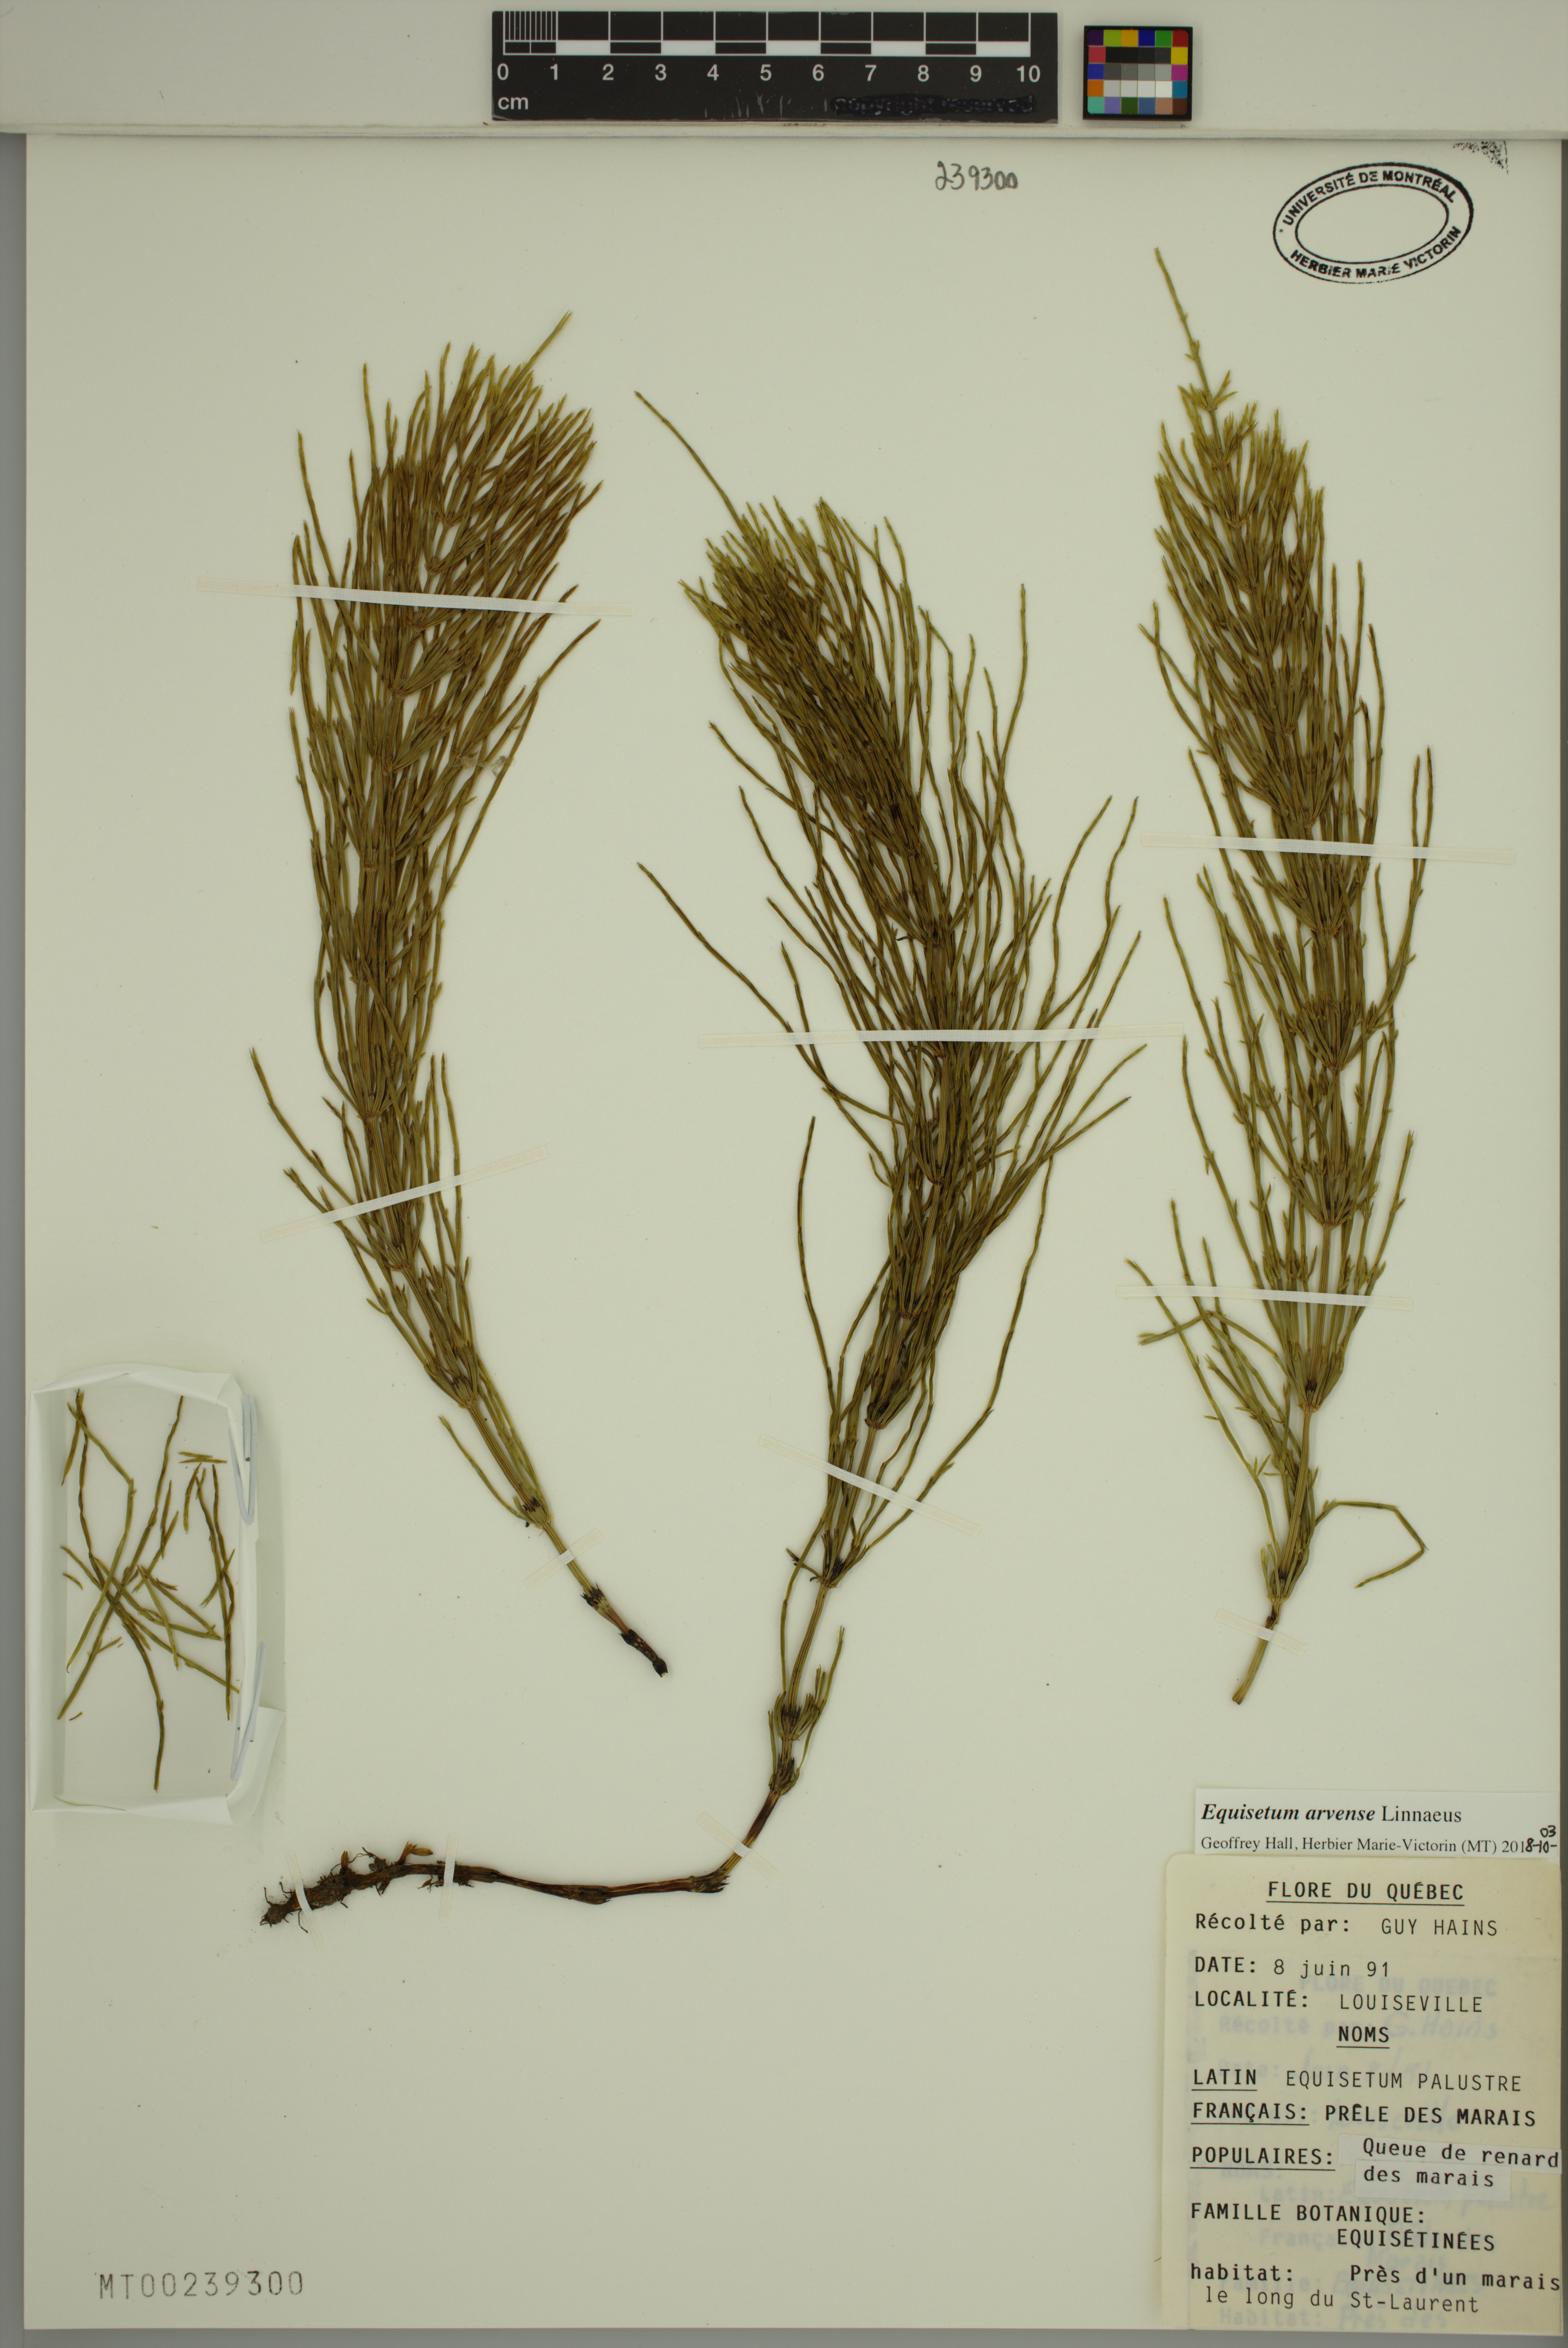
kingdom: Plantae
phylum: Tracheophyta
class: Polypodiopsida
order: Equisetales
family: Equisetaceae
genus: Equisetum
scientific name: Equisetum arvense
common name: Field horsetail
